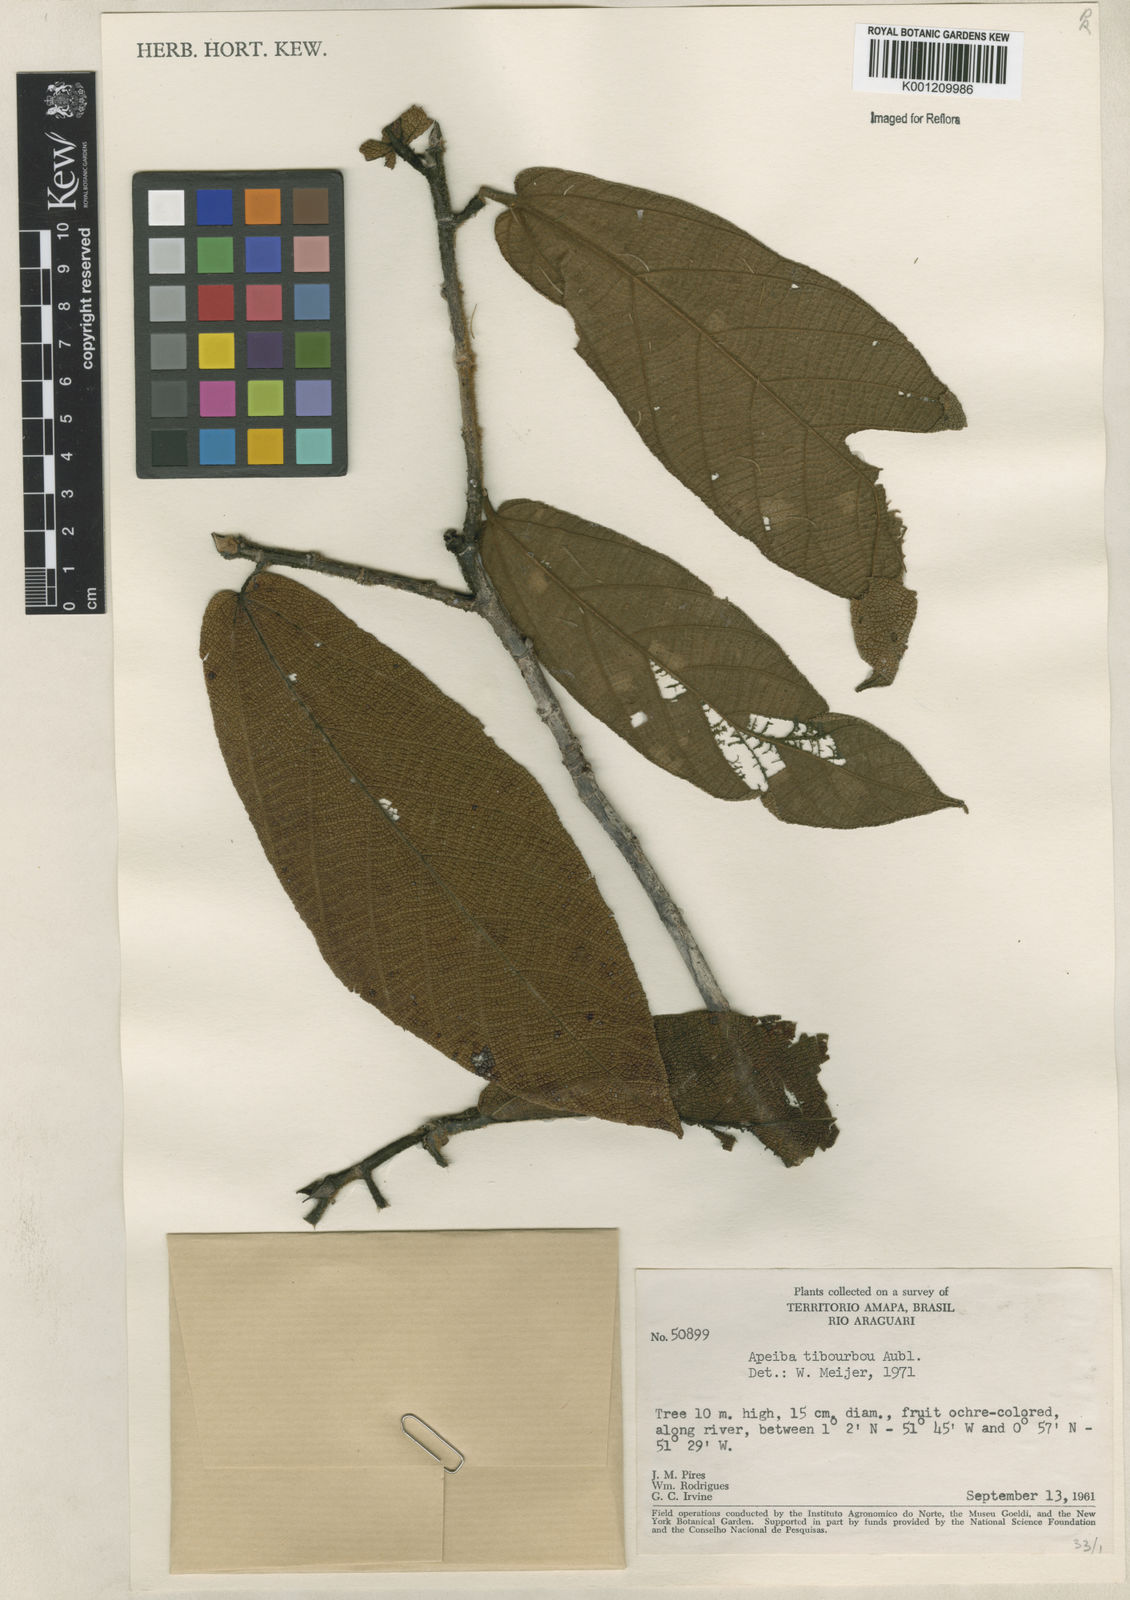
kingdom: Plantae
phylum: Tracheophyta
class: Magnoliopsida
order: Malvales
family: Malvaceae
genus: Apeiba
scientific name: Apeiba tibourbou
